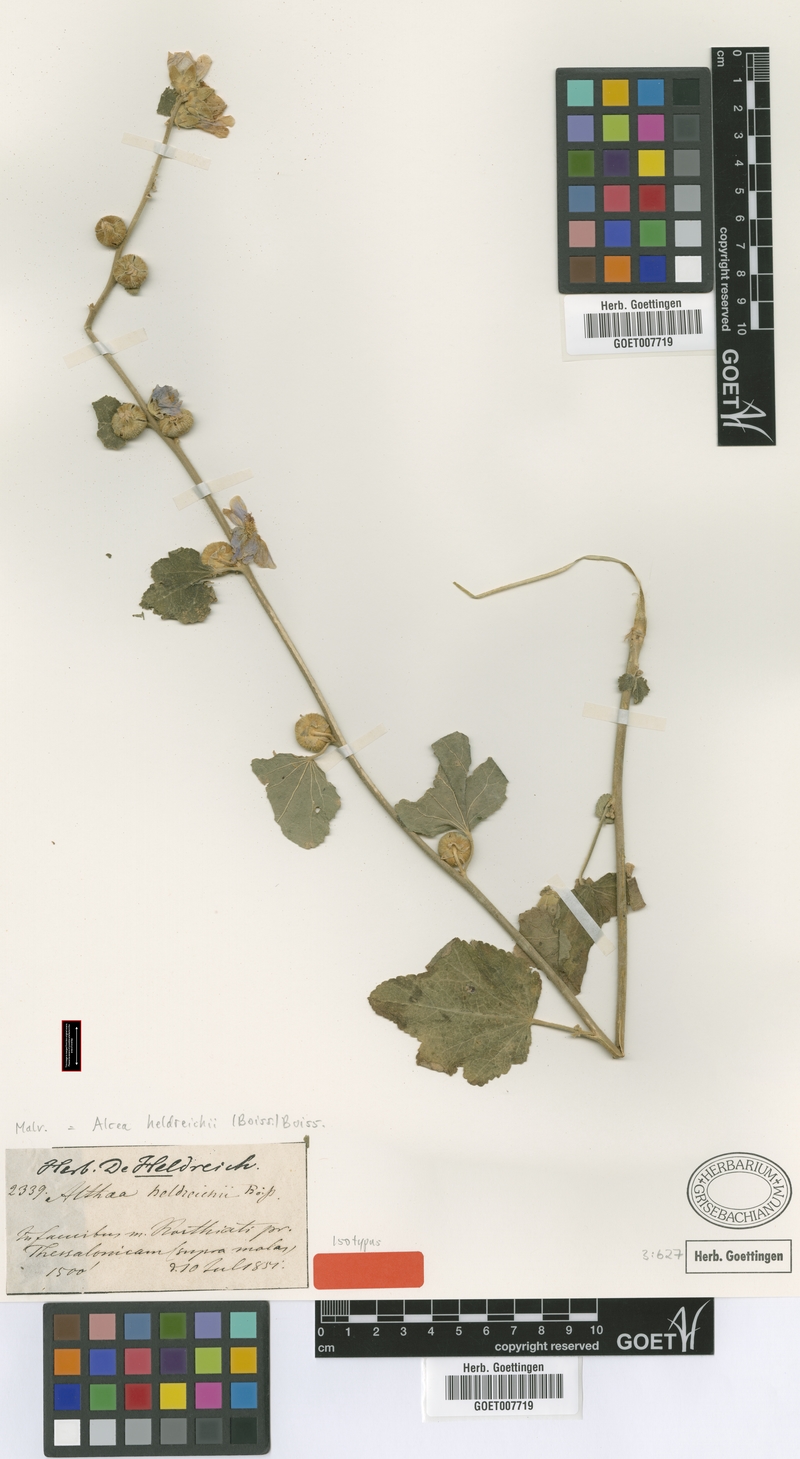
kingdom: Plantae
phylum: Tracheophyta
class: Magnoliopsida
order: Malvales
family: Malvaceae
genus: Alcea
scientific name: Alcea heldreichii
